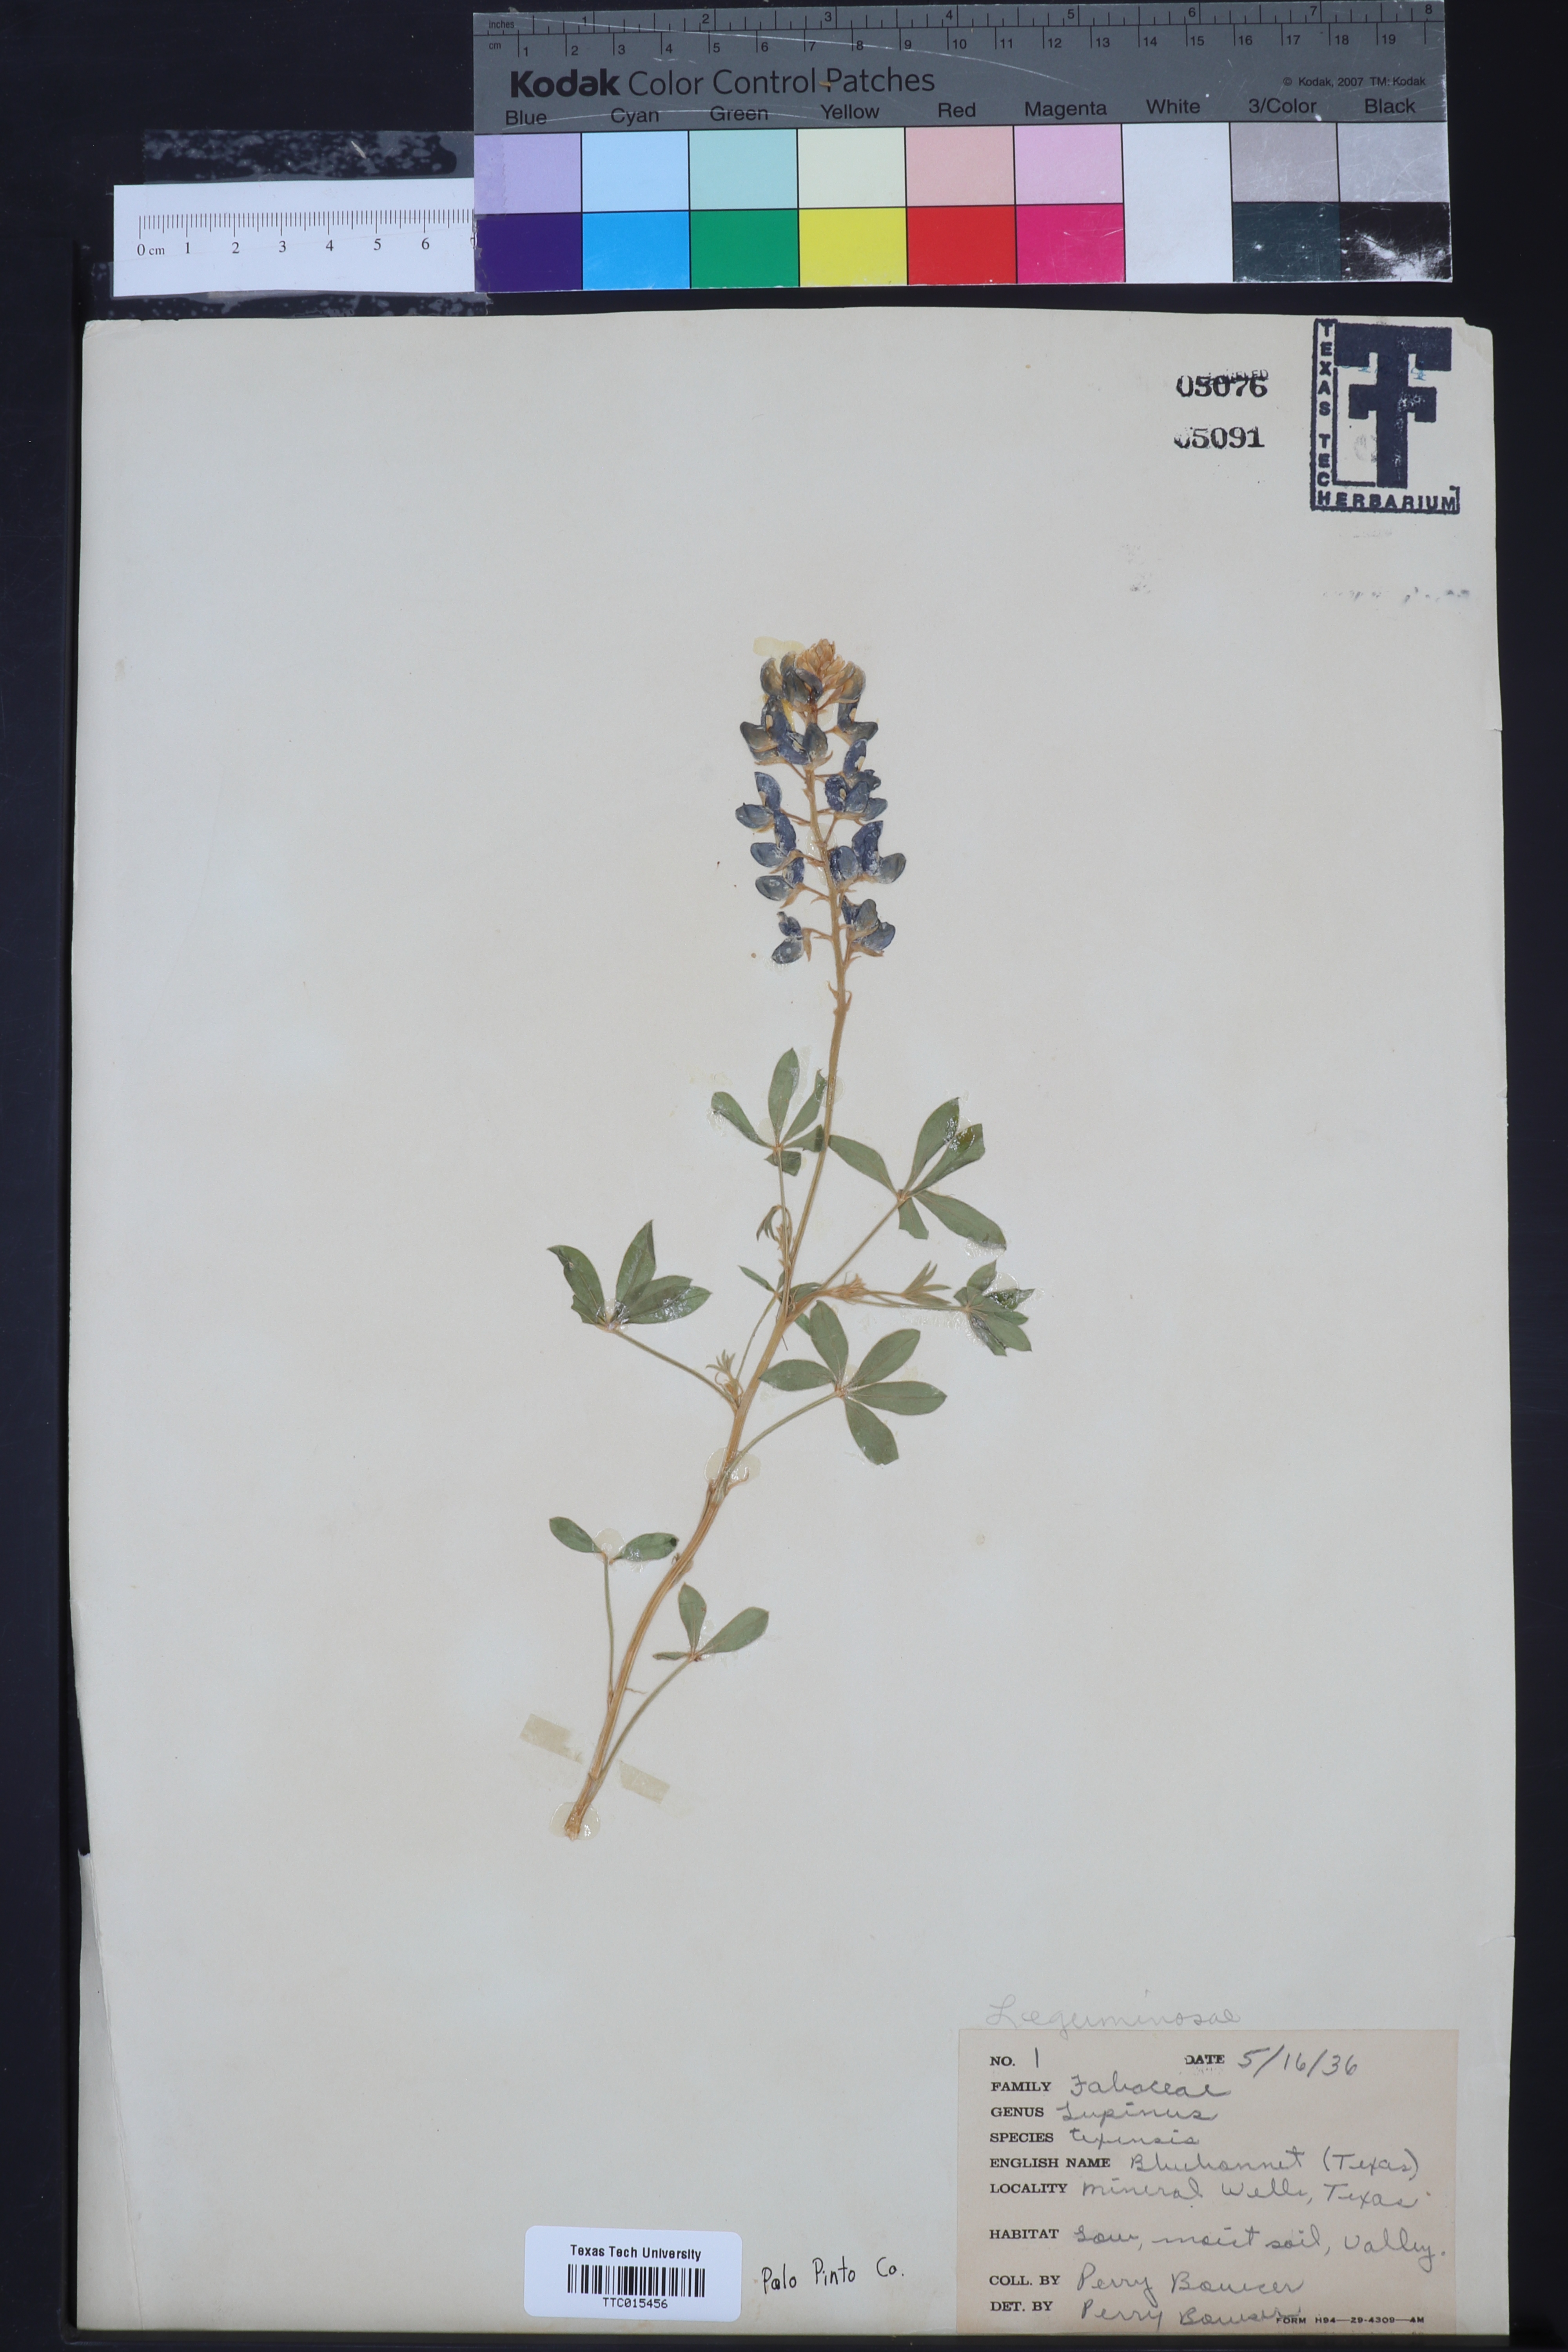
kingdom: Plantae
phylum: Tracheophyta
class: Magnoliopsida
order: Fabales
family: Fabaceae
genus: Lupinus
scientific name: Lupinus texensis
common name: Texas bluebonnet
